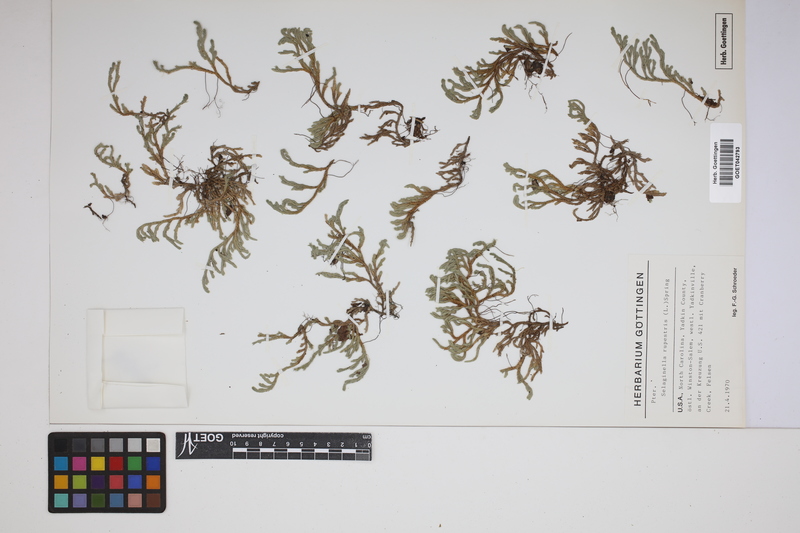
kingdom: Plantae
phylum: Tracheophyta
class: Lycopodiopsida
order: Selaginellales
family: Selaginellaceae
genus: Selaginella
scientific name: Selaginella rupestris
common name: Dwarf spikemoss
